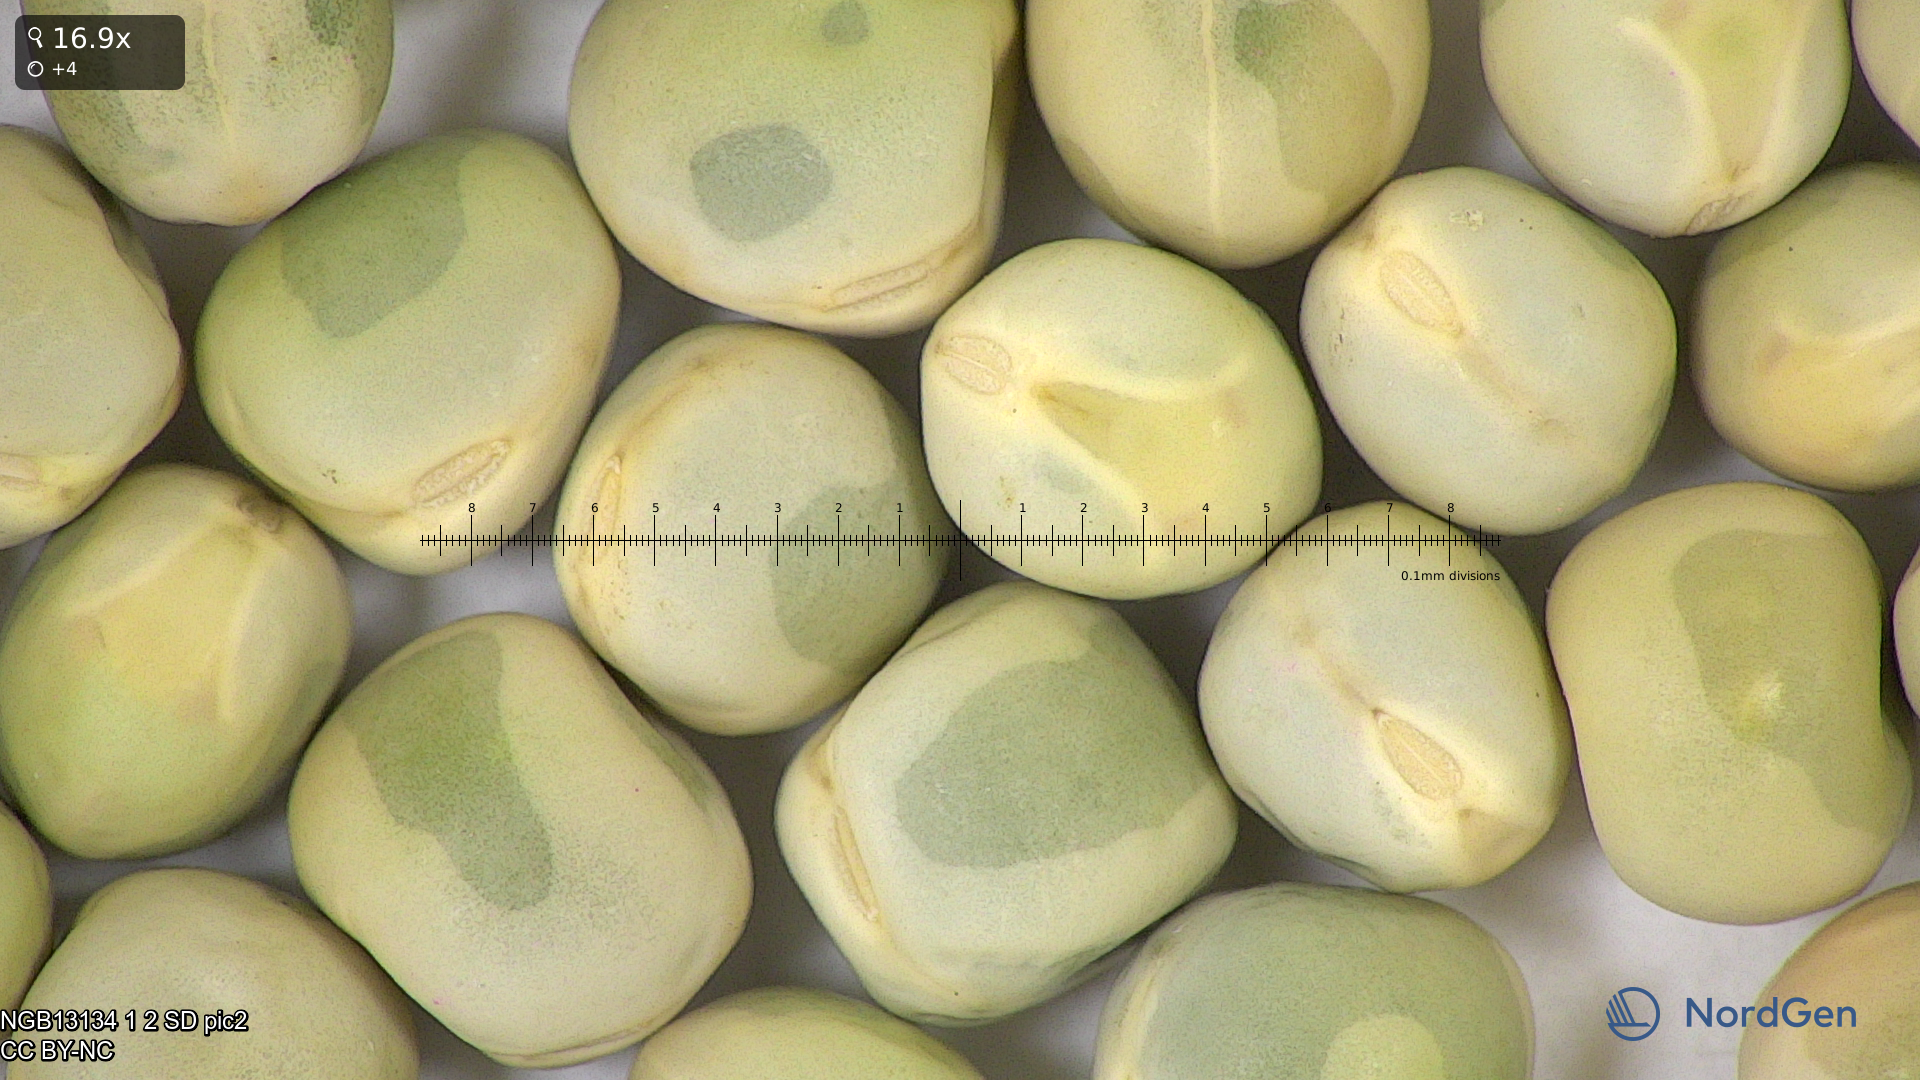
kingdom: Plantae
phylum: Tracheophyta
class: Magnoliopsida
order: Fabales
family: Fabaceae
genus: Lathyrus
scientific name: Lathyrus oleraceus
